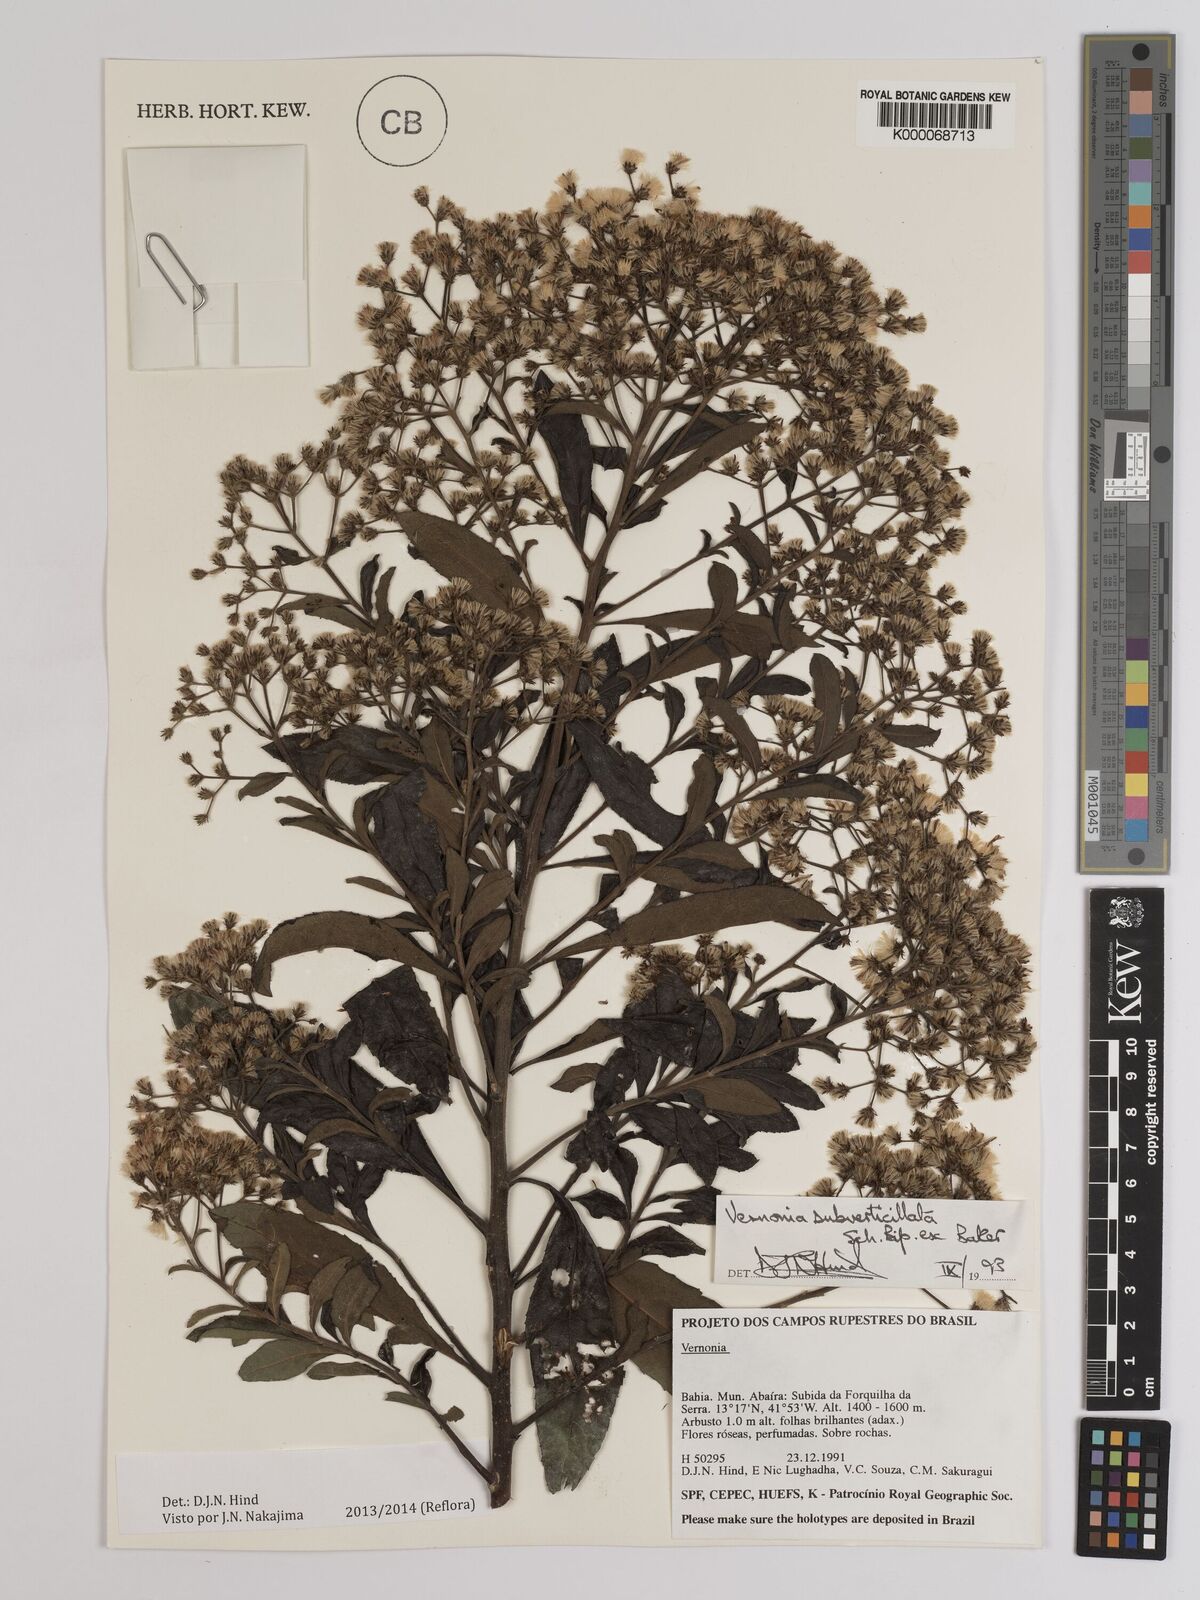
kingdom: Plantae
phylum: Tracheophyta
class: Magnoliopsida
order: Asterales
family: Asteraceae
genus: Vernonia
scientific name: Vernonia
